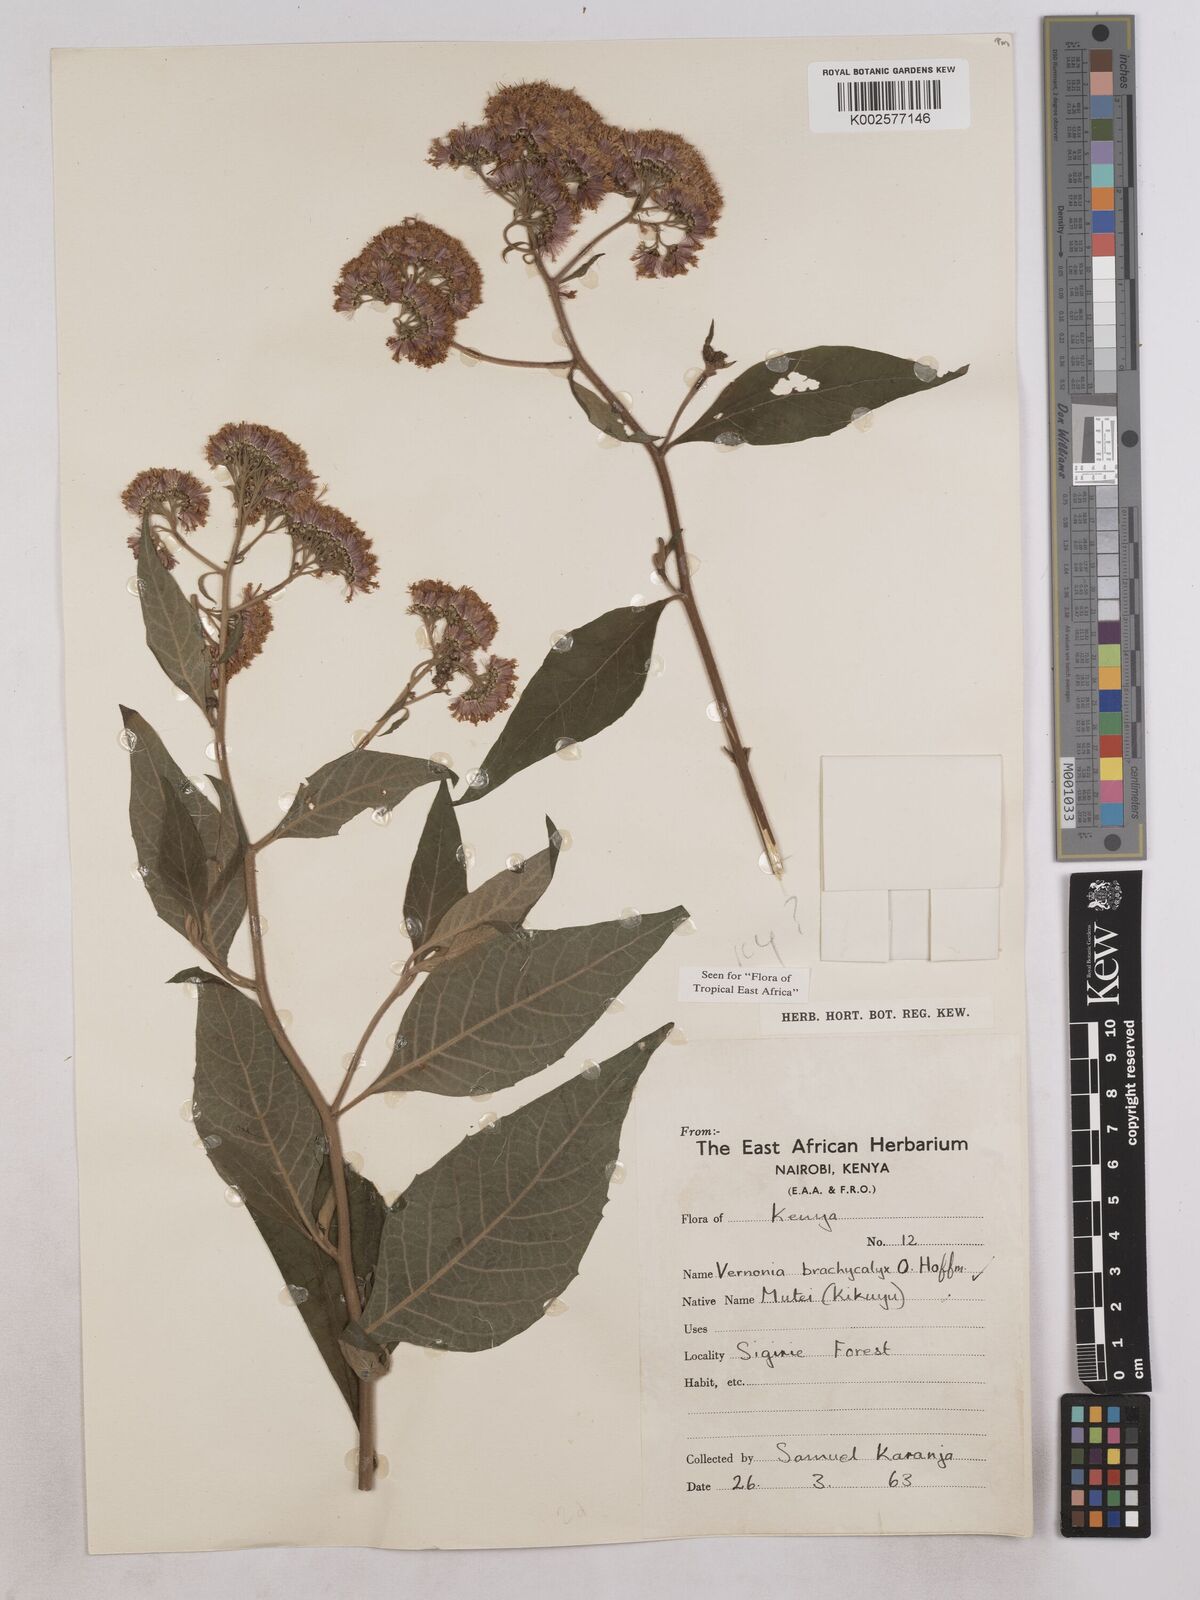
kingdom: Plantae
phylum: Tracheophyta
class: Magnoliopsida
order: Asterales
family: Asteraceae
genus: Hoffmannanthus
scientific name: Hoffmannanthus abbotianus
